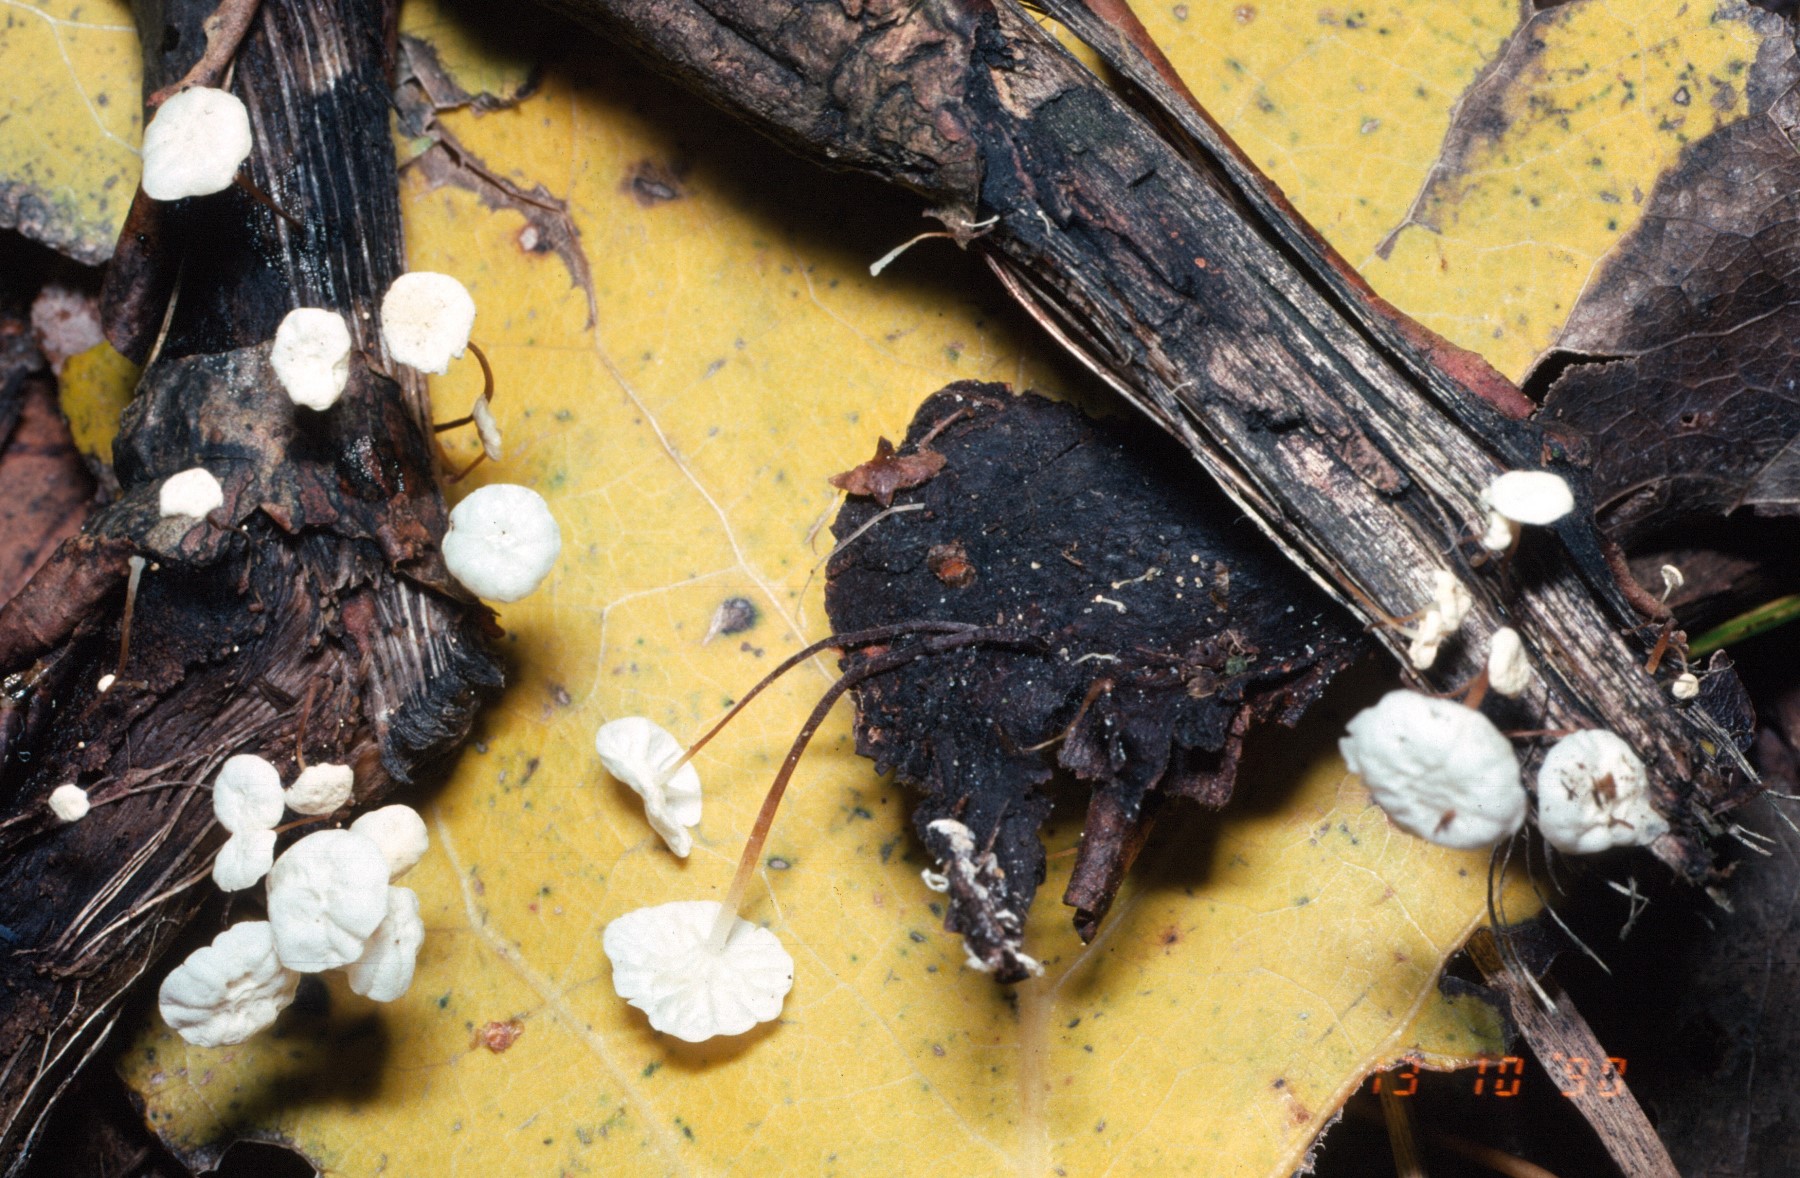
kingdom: Fungi
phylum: Basidiomycota
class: Agaricomycetes
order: Agaricales
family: Marasmiaceae
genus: Marasmius
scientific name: Marasmius epiphyllus
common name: blad-bruskhat
